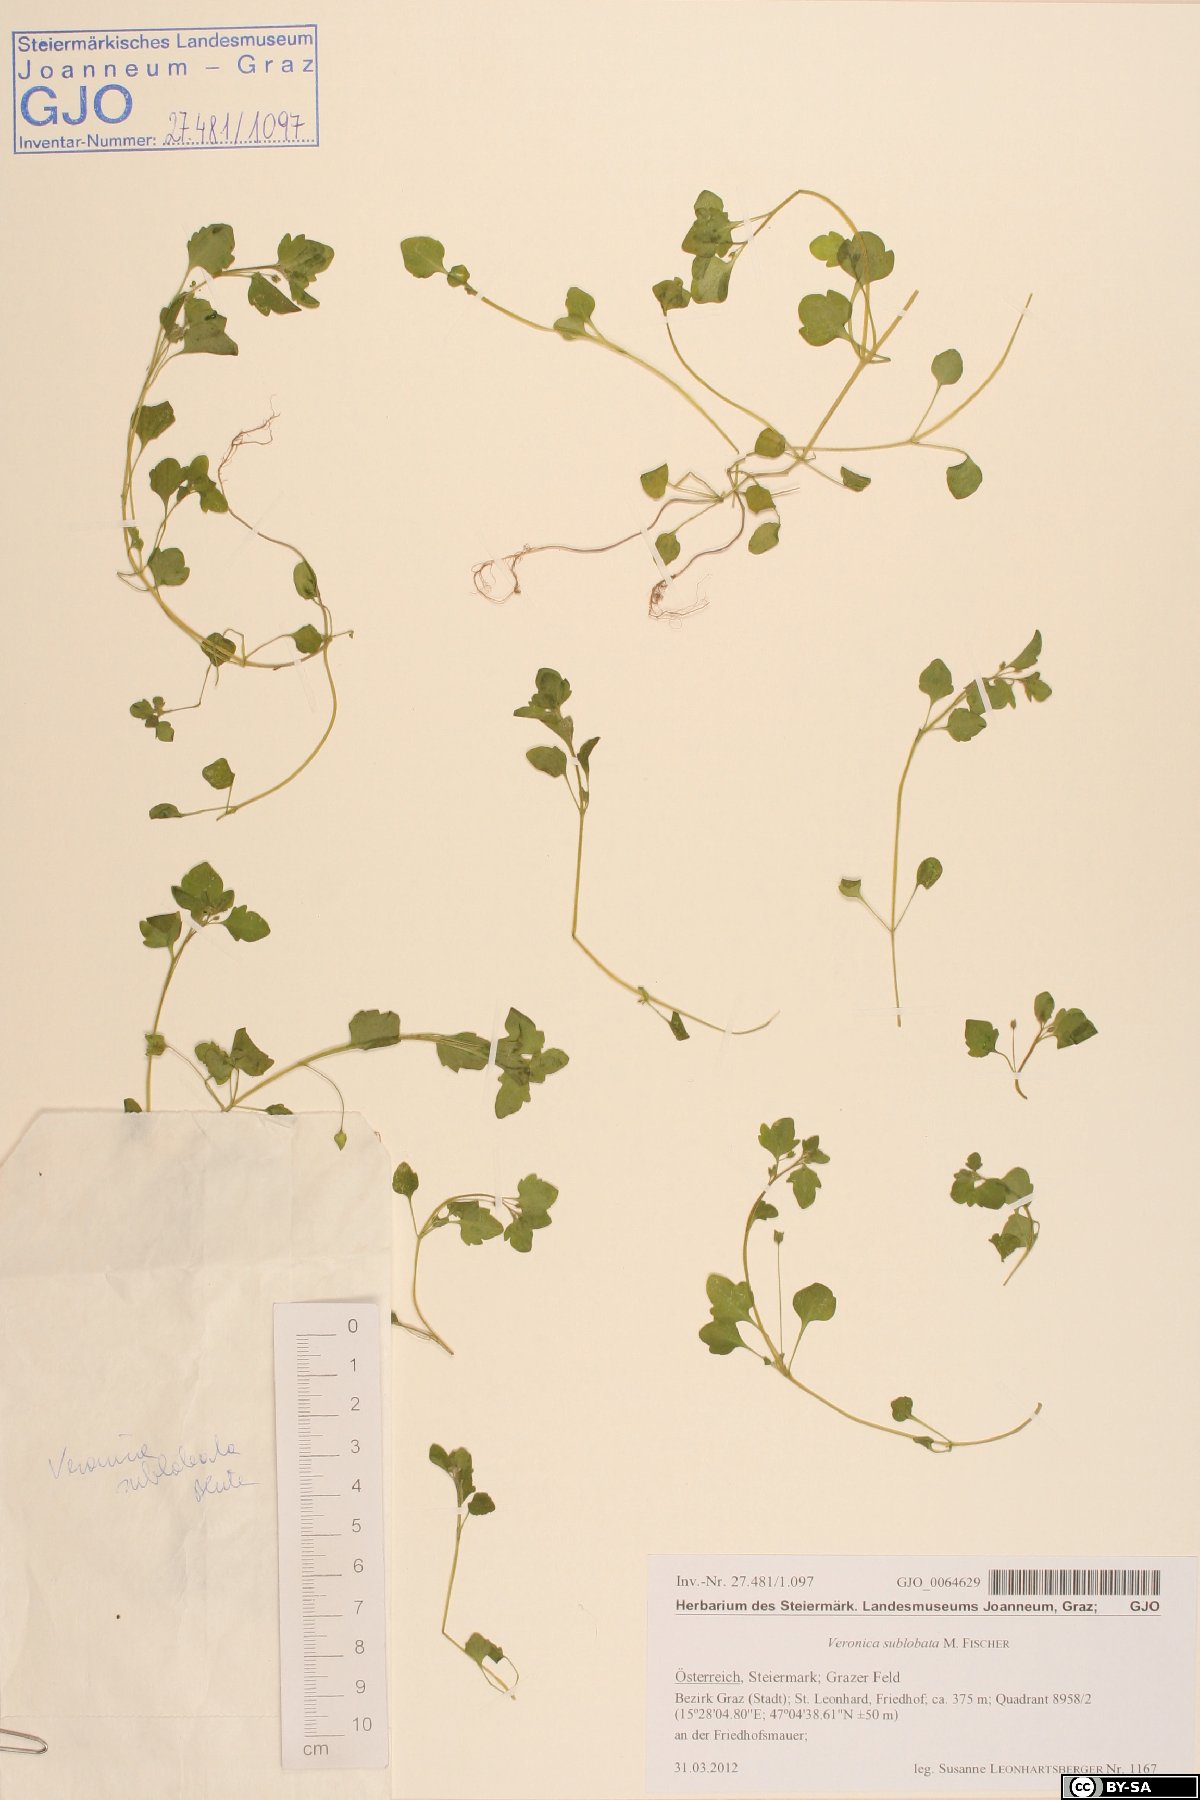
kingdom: Plantae
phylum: Tracheophyta
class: Magnoliopsida
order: Lamiales
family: Plantaginaceae
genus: Veronica
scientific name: Veronica sublobata
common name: False ivy-leaved speedwell
